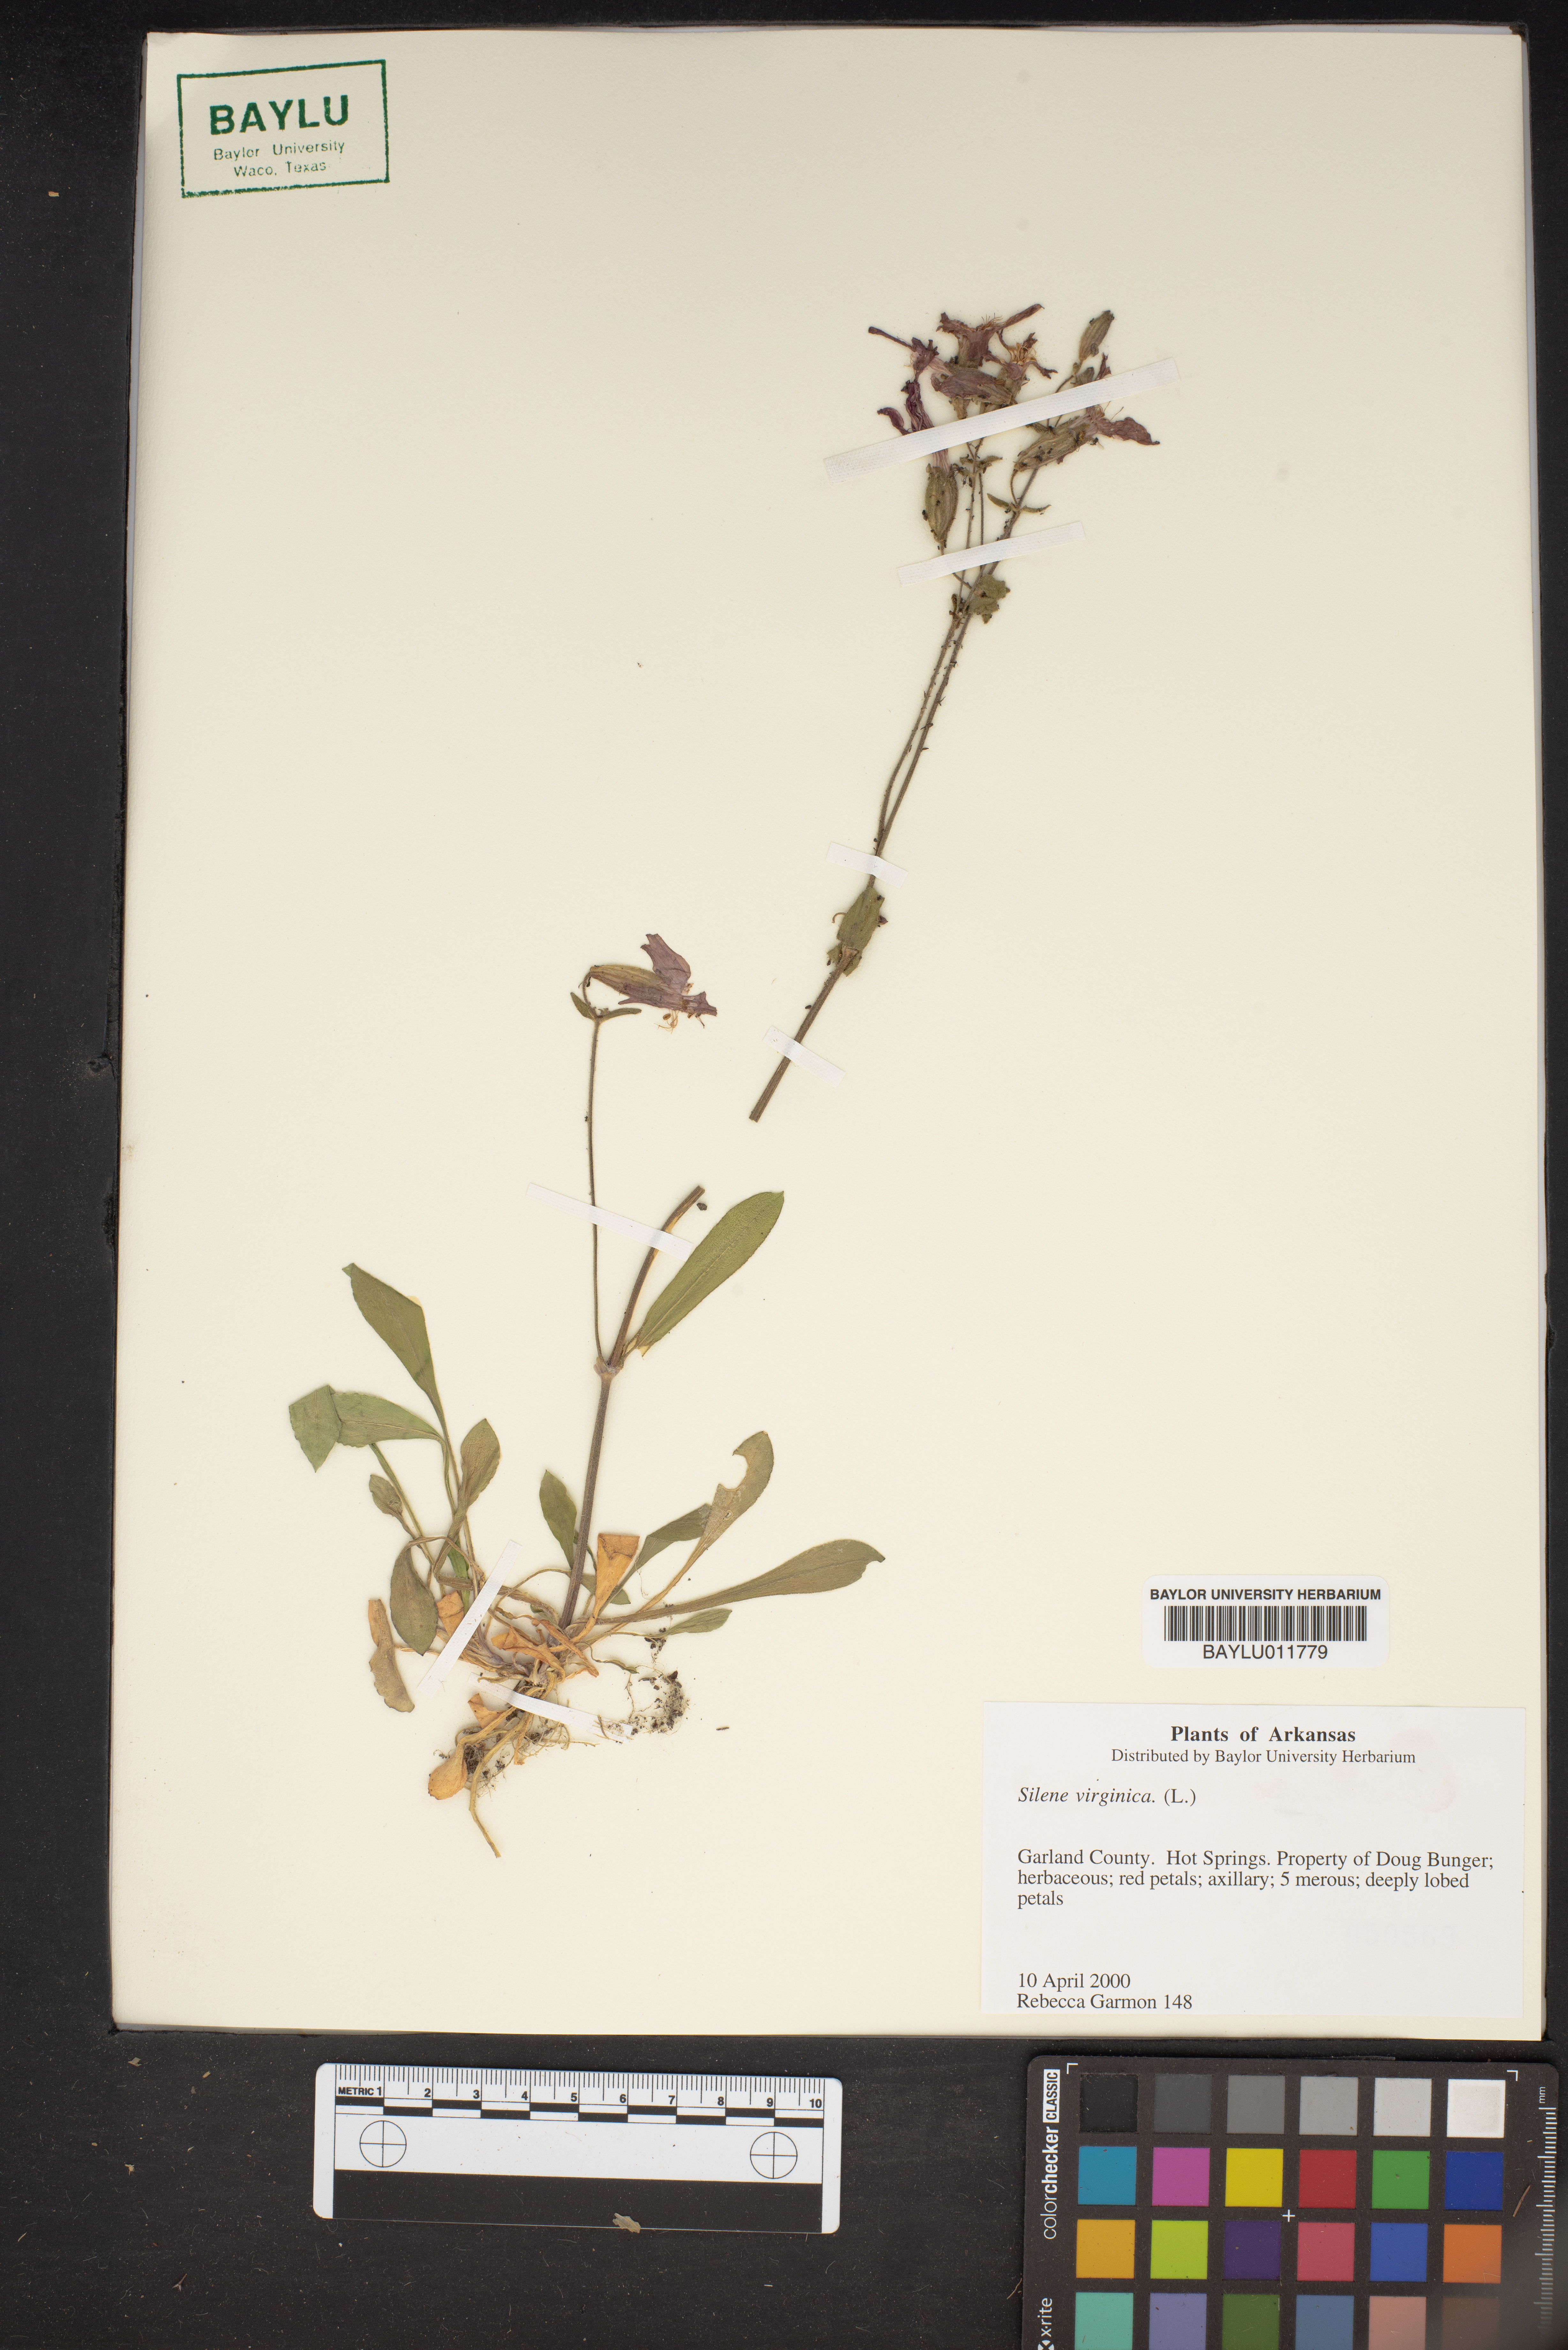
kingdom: Plantae
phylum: Tracheophyta
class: Magnoliopsida
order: Caryophyllales
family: Caryophyllaceae
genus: Silene
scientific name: Silene virginica
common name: Fire-pink
